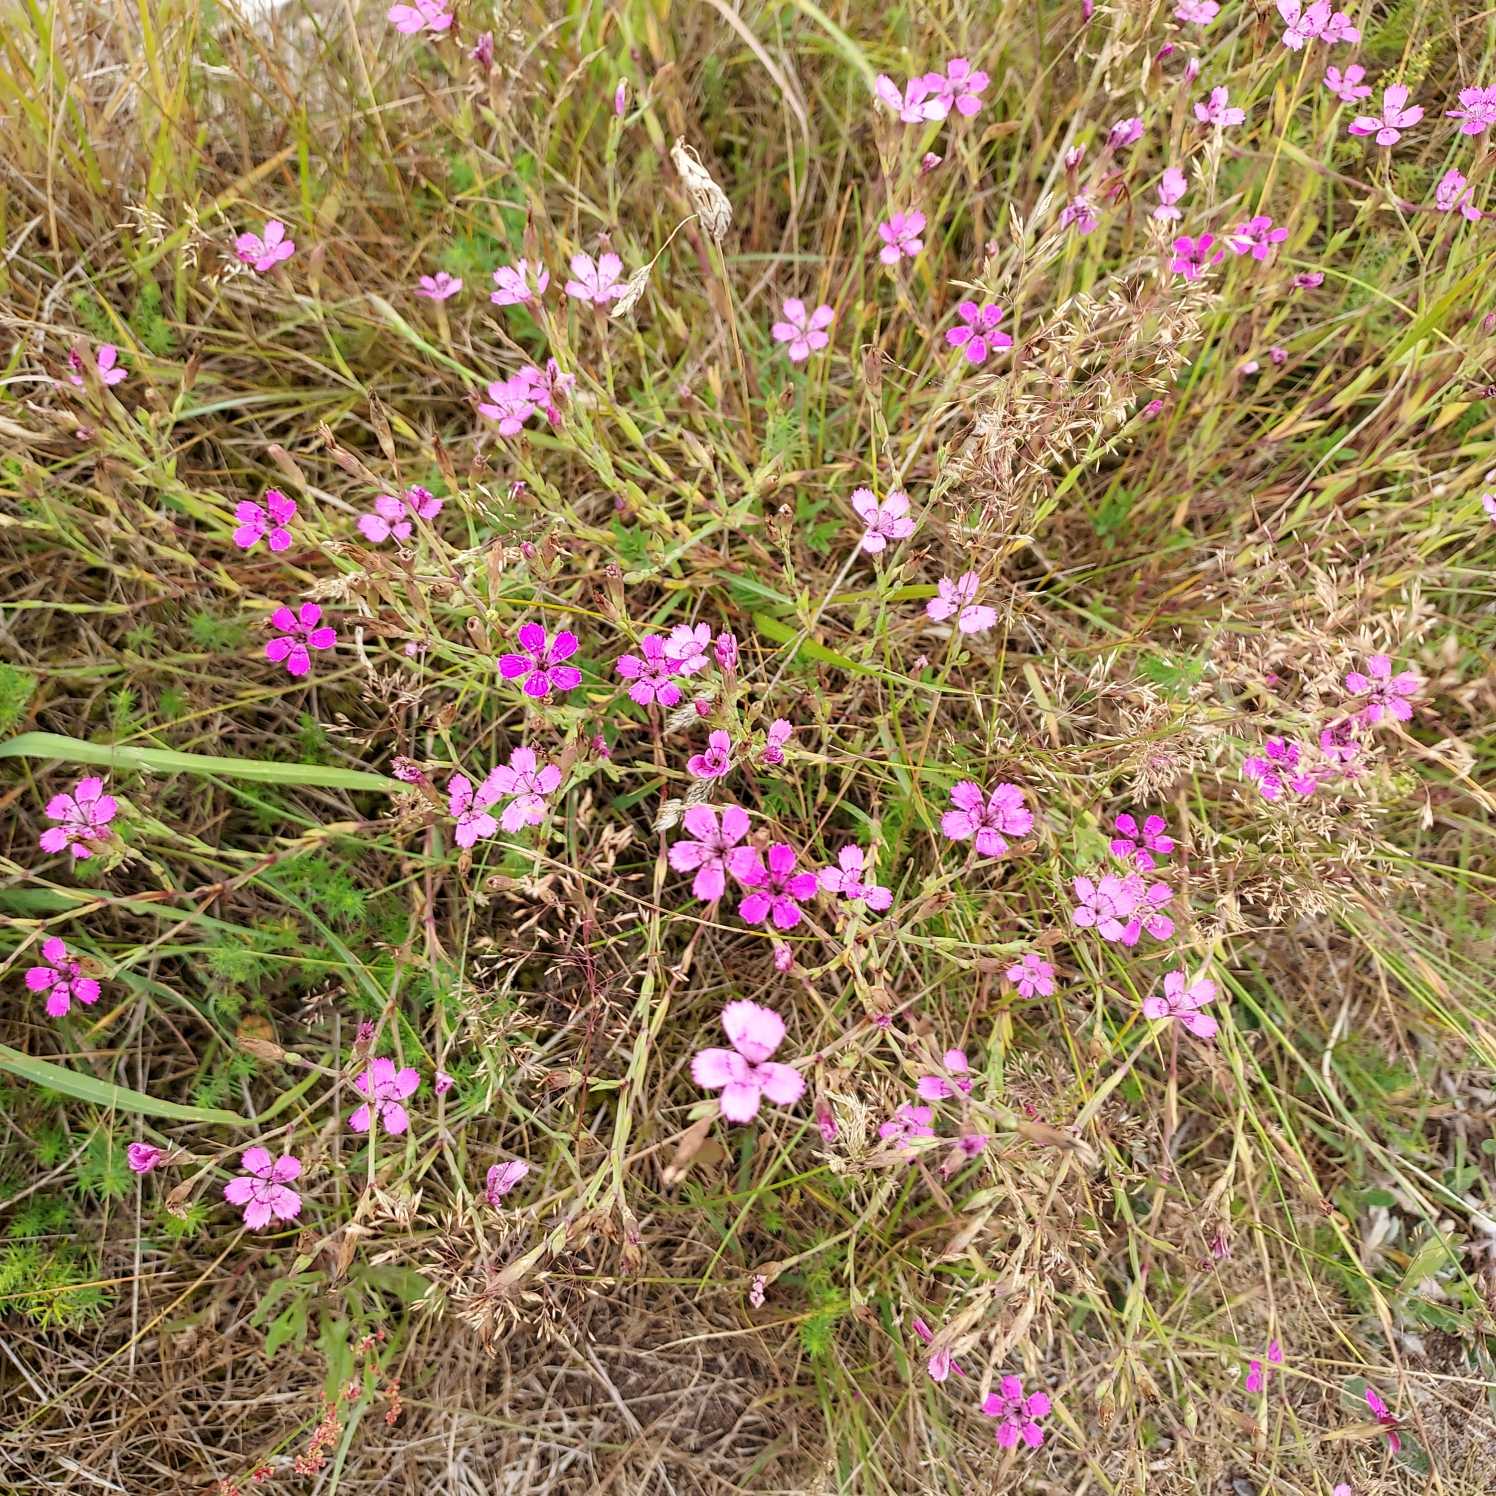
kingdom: Plantae
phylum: Tracheophyta
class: Magnoliopsida
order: Caryophyllales
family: Caryophyllaceae
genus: Dianthus
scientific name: Dianthus deltoides
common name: Bakke-nellike
